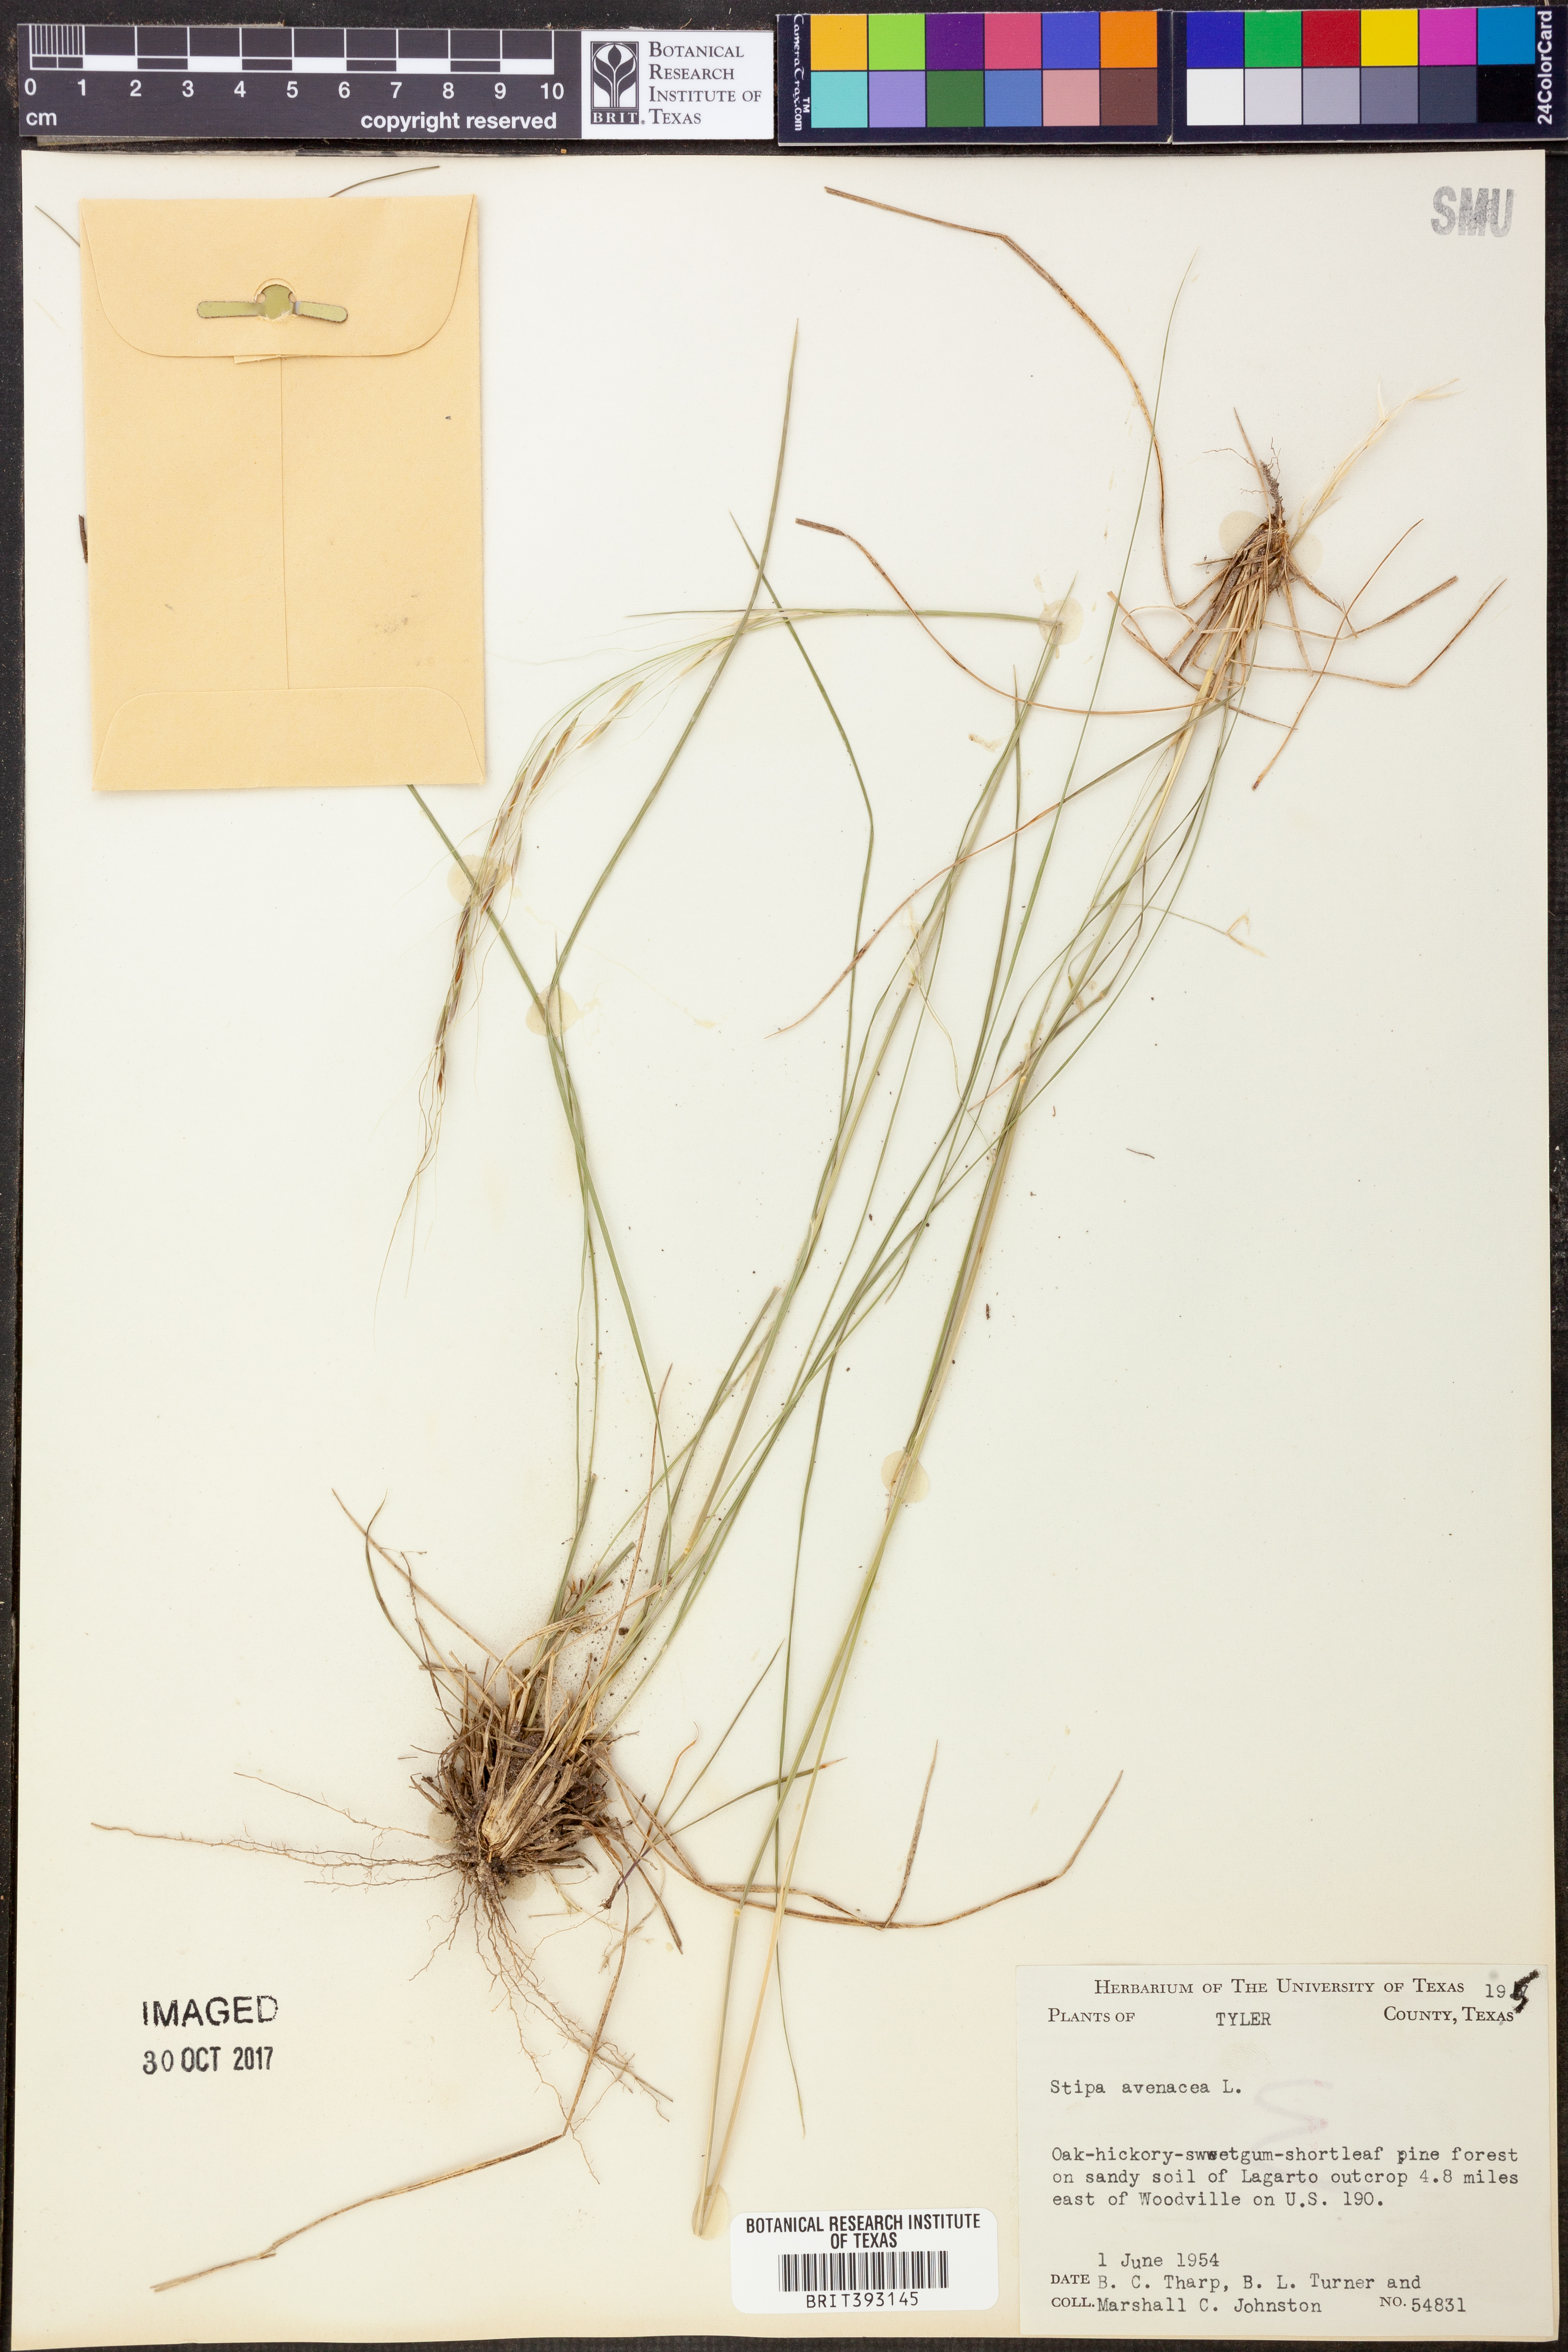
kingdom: Plantae
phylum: Tracheophyta
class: Liliopsida
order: Poales
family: Poaceae
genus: Piptochaetium
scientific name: Piptochaetium avenaceum
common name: Black bunchgrass
